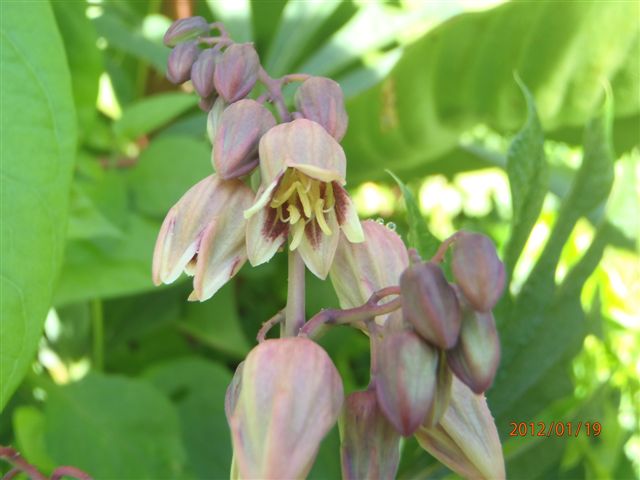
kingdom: Plantae
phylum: Tracheophyta
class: Magnoliopsida
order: Malpighiales
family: Euphorbiaceae
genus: Manihot
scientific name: Manihot esculenta
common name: Cassava
